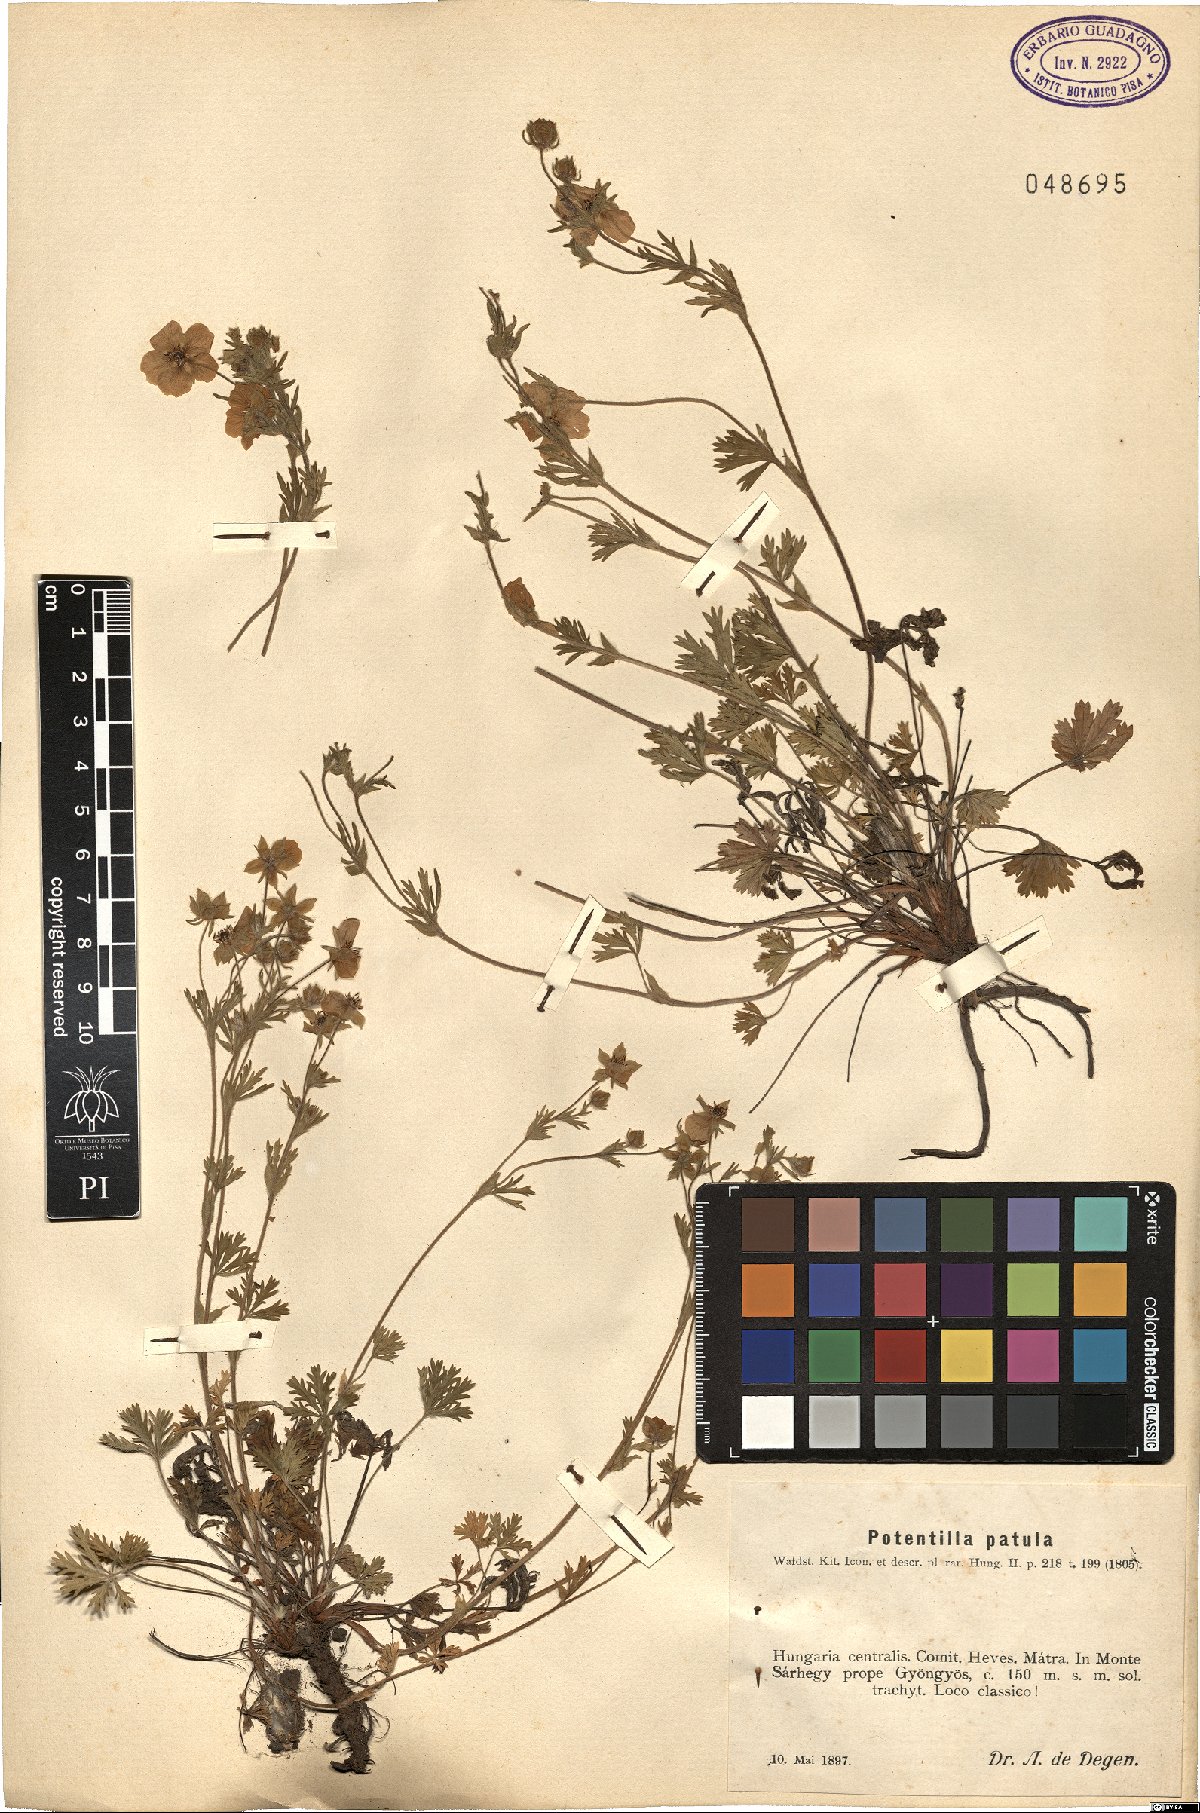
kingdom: Plantae
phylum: Tracheophyta
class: Magnoliopsida
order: Rosales
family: Rosaceae
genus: Potentilla
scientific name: Potentilla patula
